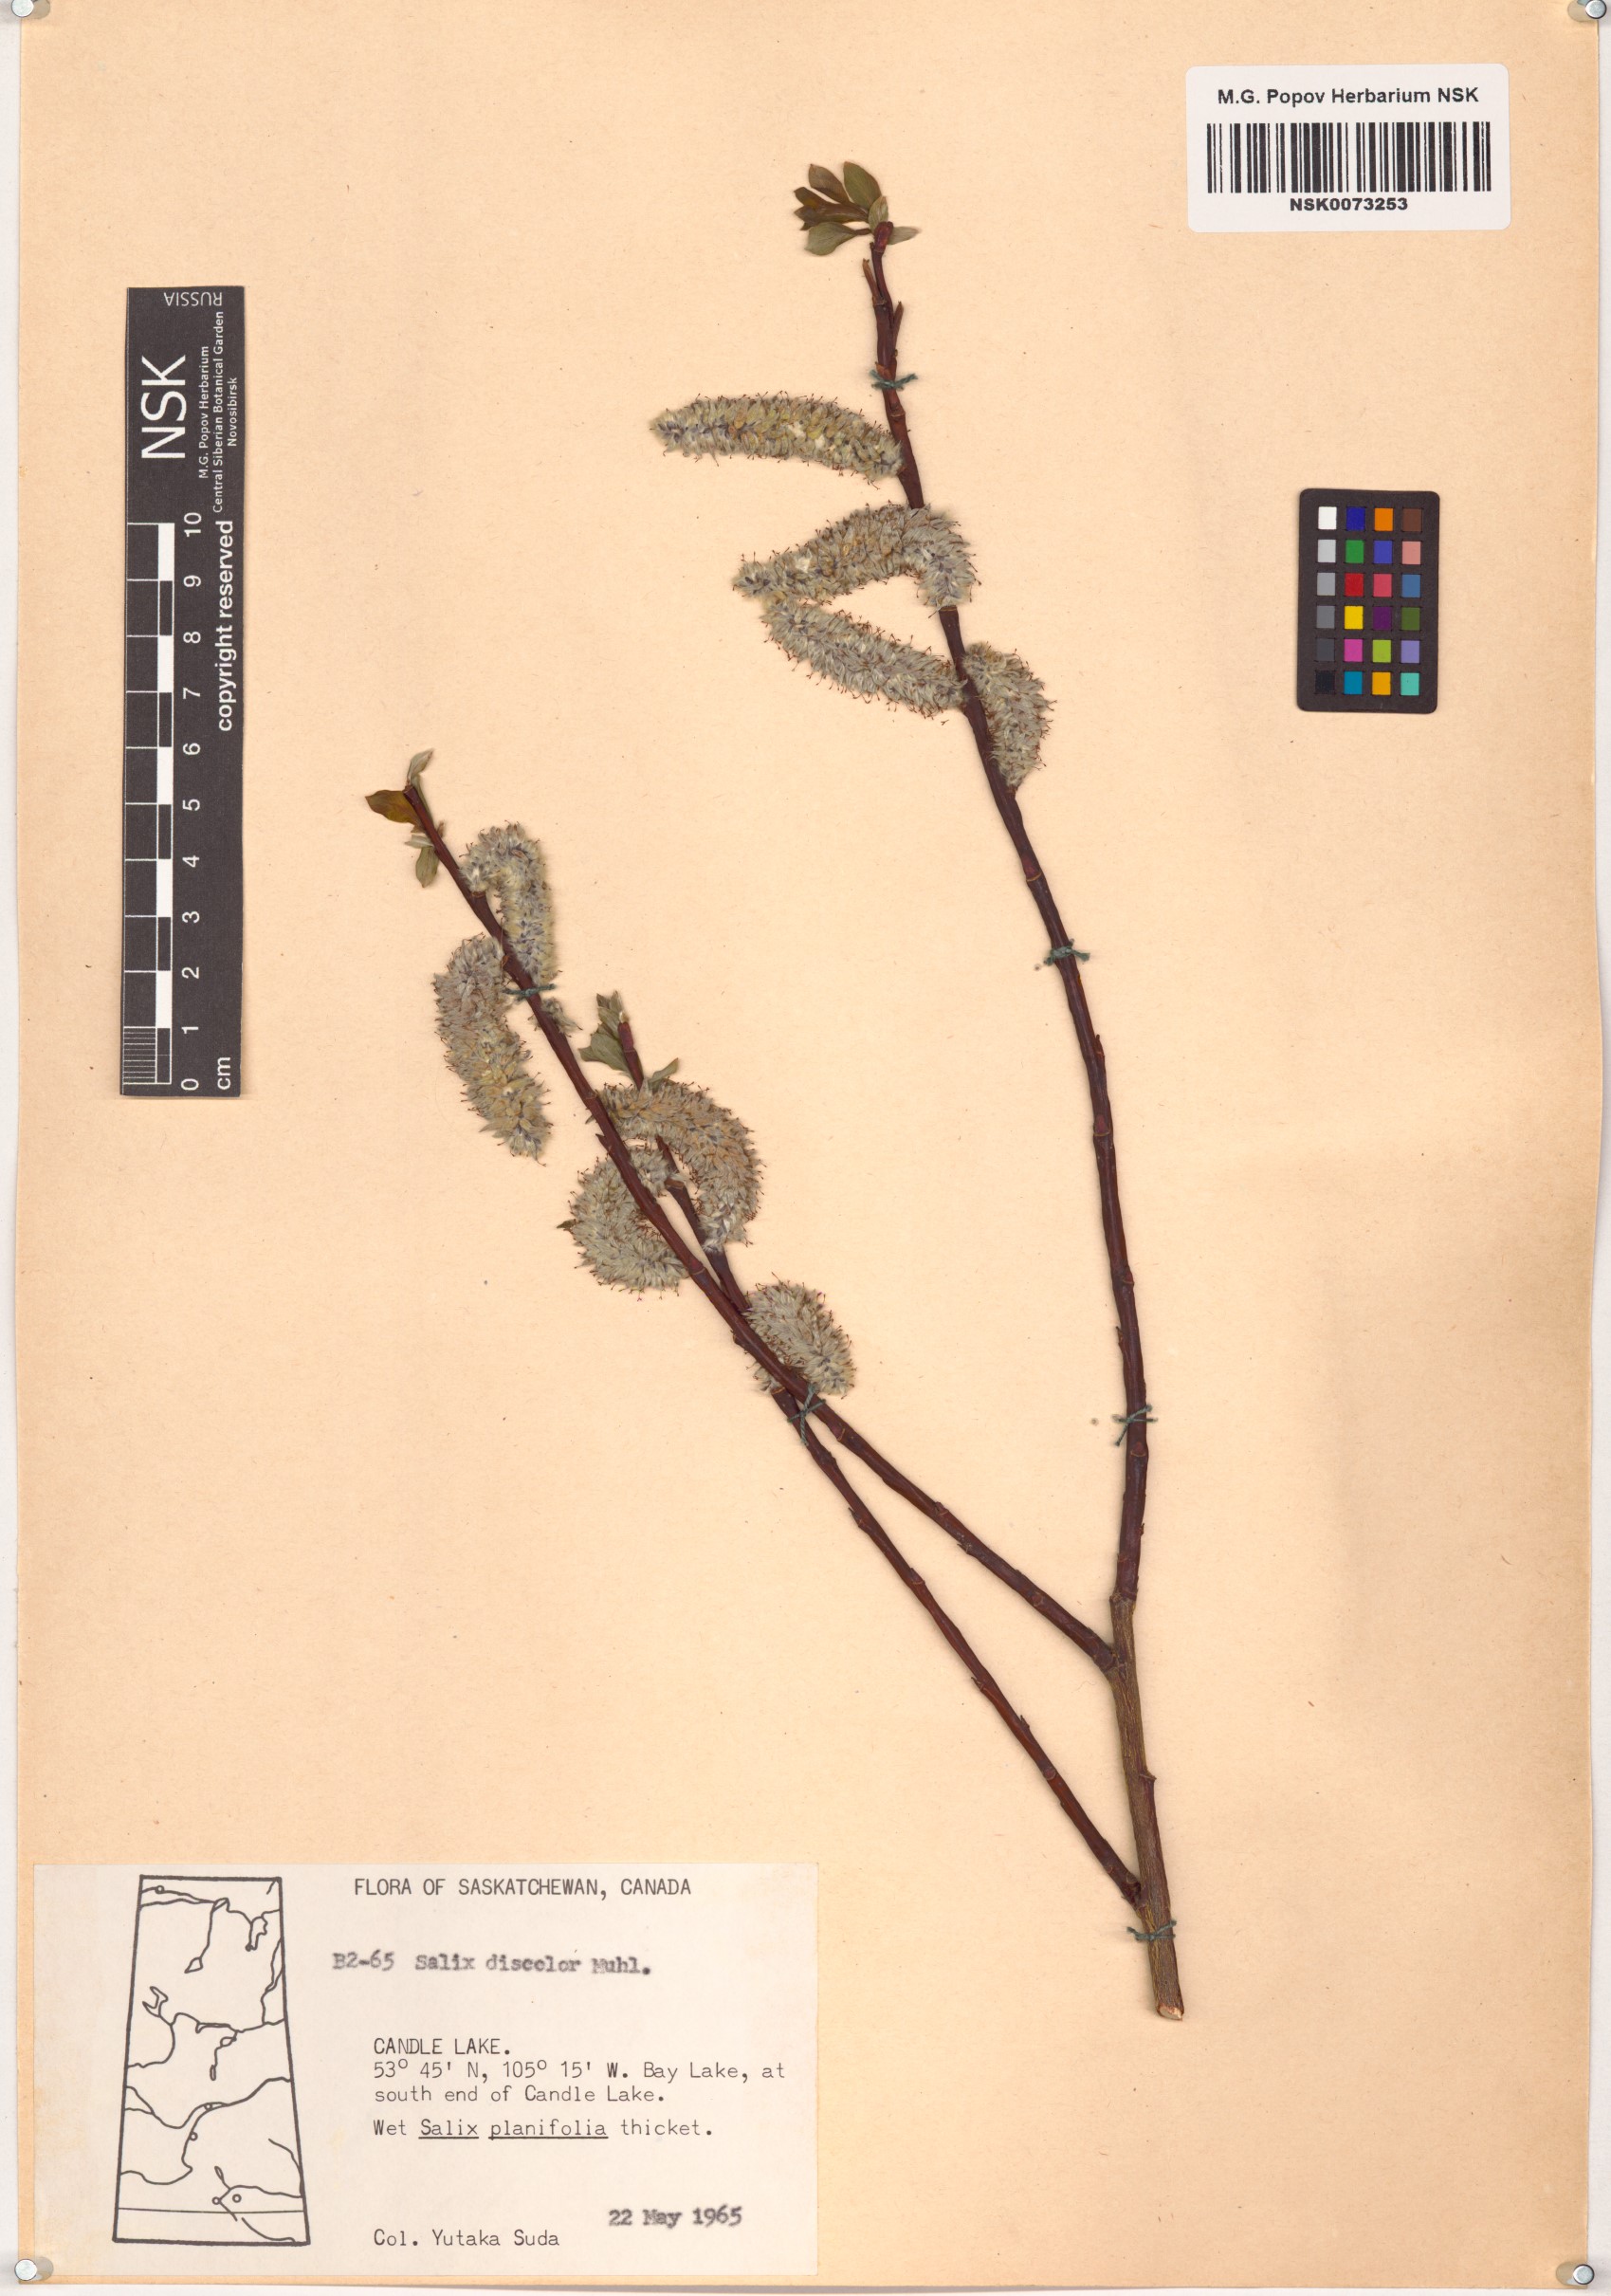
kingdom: Plantae
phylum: Tracheophyta
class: Magnoliopsida
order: Malpighiales
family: Salicaceae
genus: Salix
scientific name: Salix discolor
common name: Glaucous willow
